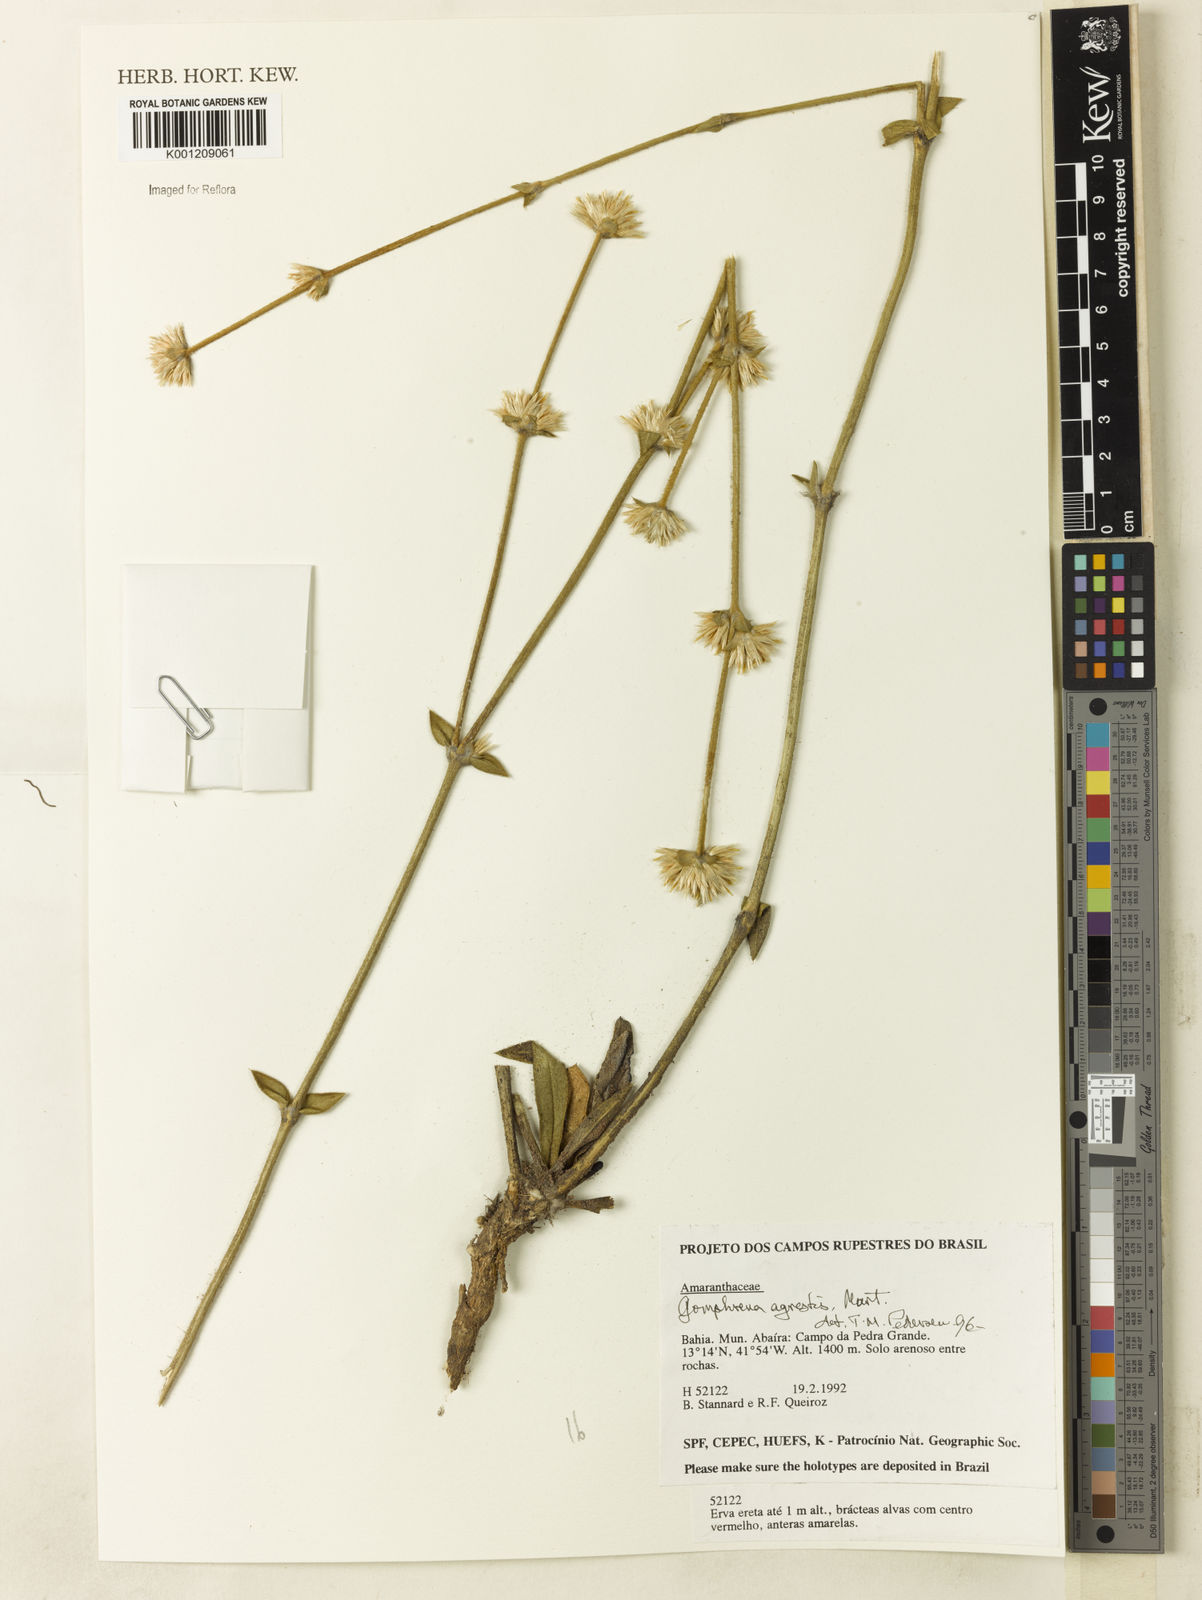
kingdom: Plantae
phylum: Tracheophyta
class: Magnoliopsida
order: Caryophyllales
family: Amaranthaceae
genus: Gomphrena
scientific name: Gomphrena agrestis
